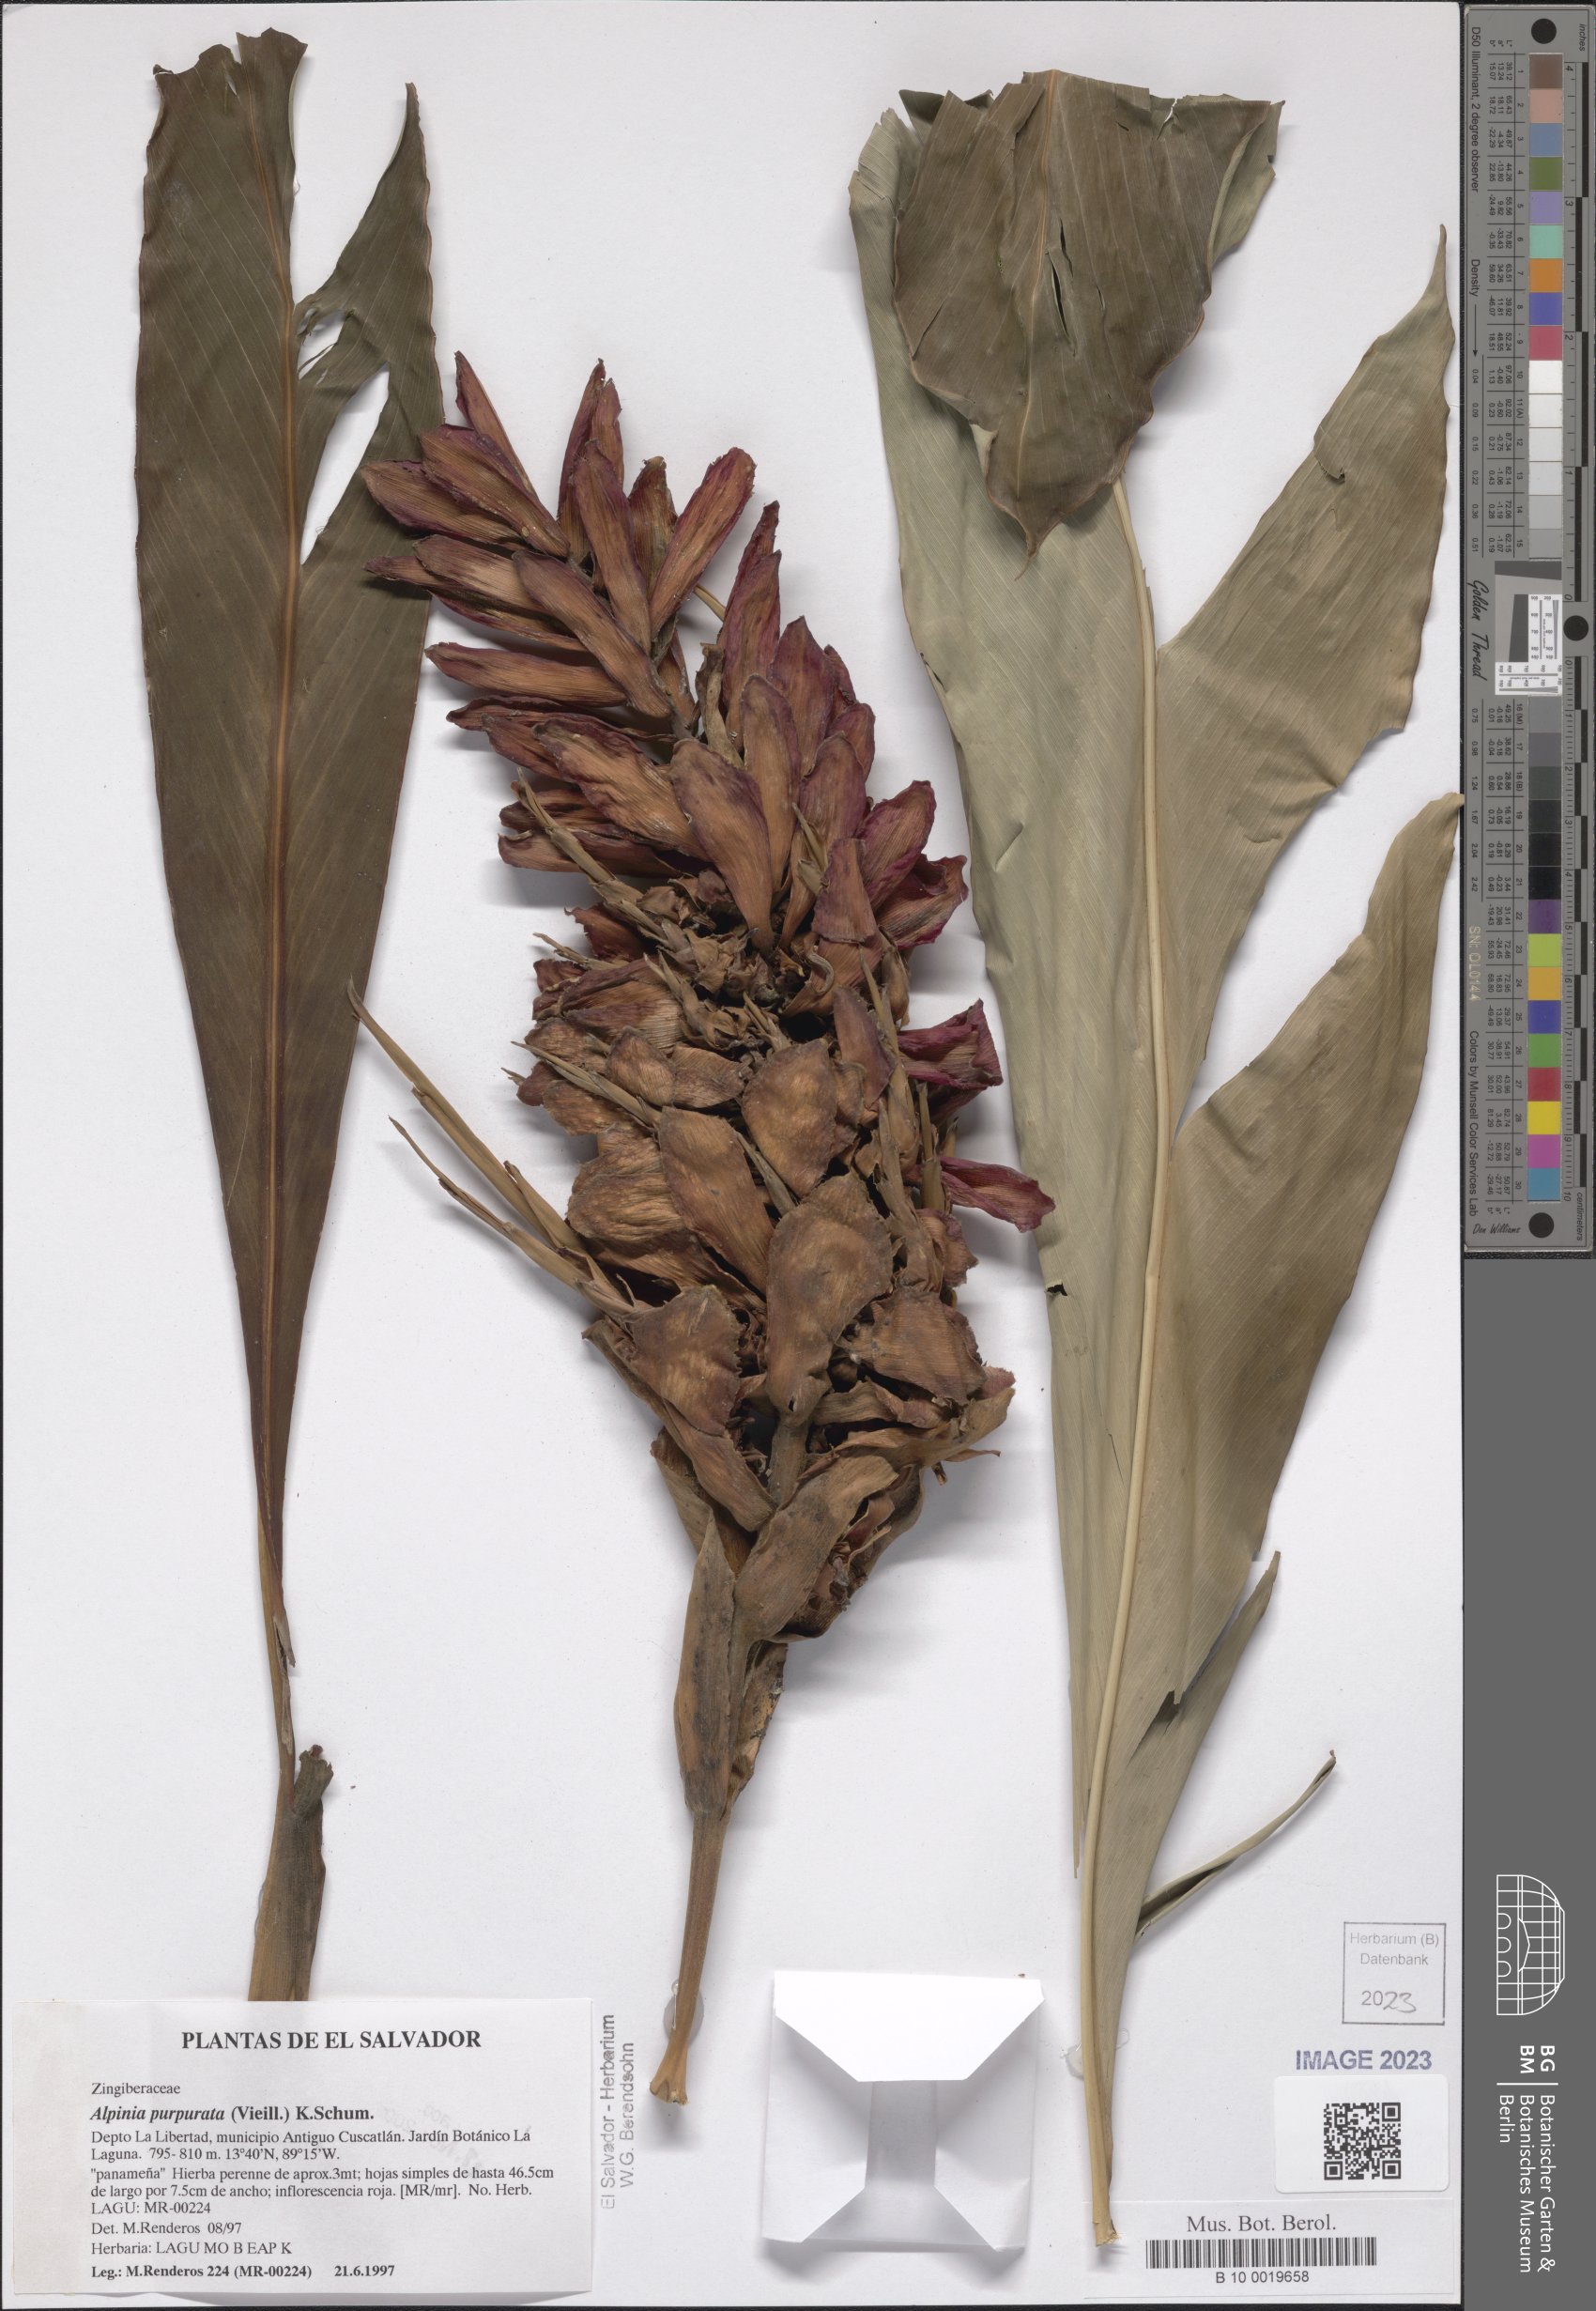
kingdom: Plantae
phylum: Tracheophyta
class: Liliopsida
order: Zingiberales
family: Zingiberaceae
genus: Alpinia
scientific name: Alpinia purpurata
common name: Red ginger
